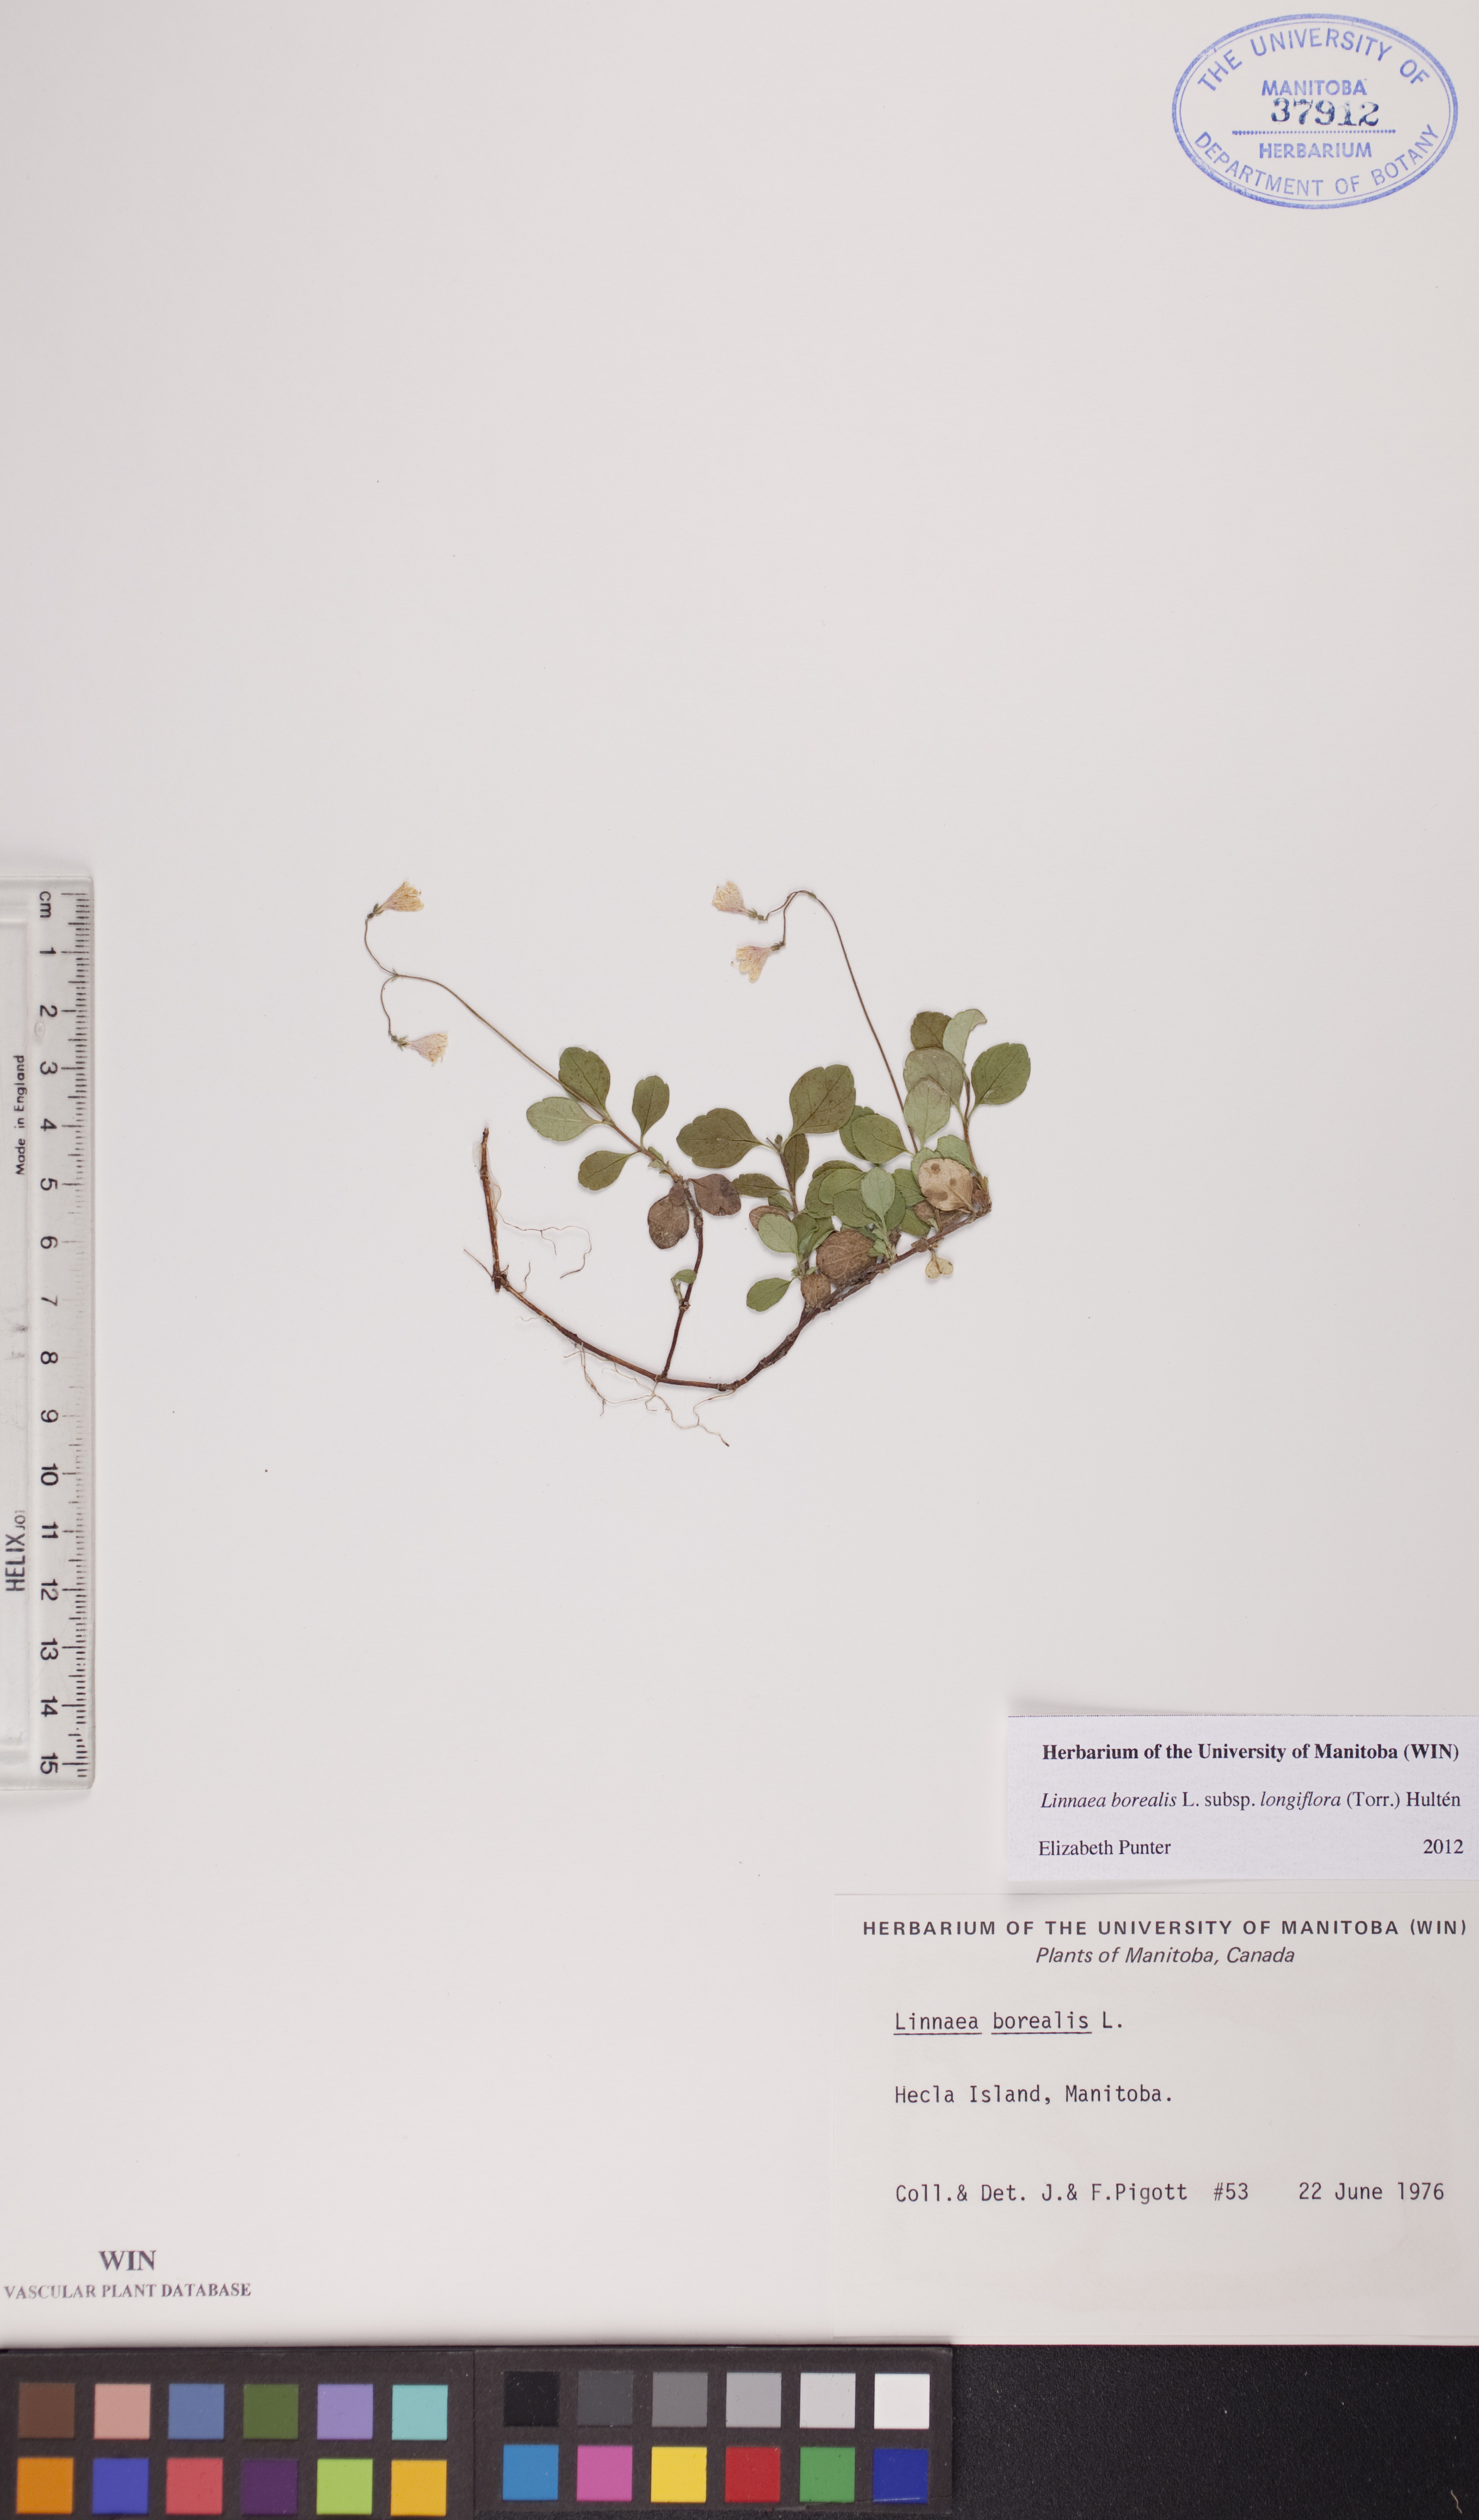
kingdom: Plantae
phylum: Tracheophyta
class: Magnoliopsida
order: Dipsacales
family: Caprifoliaceae
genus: Linnaea
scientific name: Linnaea borealis
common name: Twinflower
